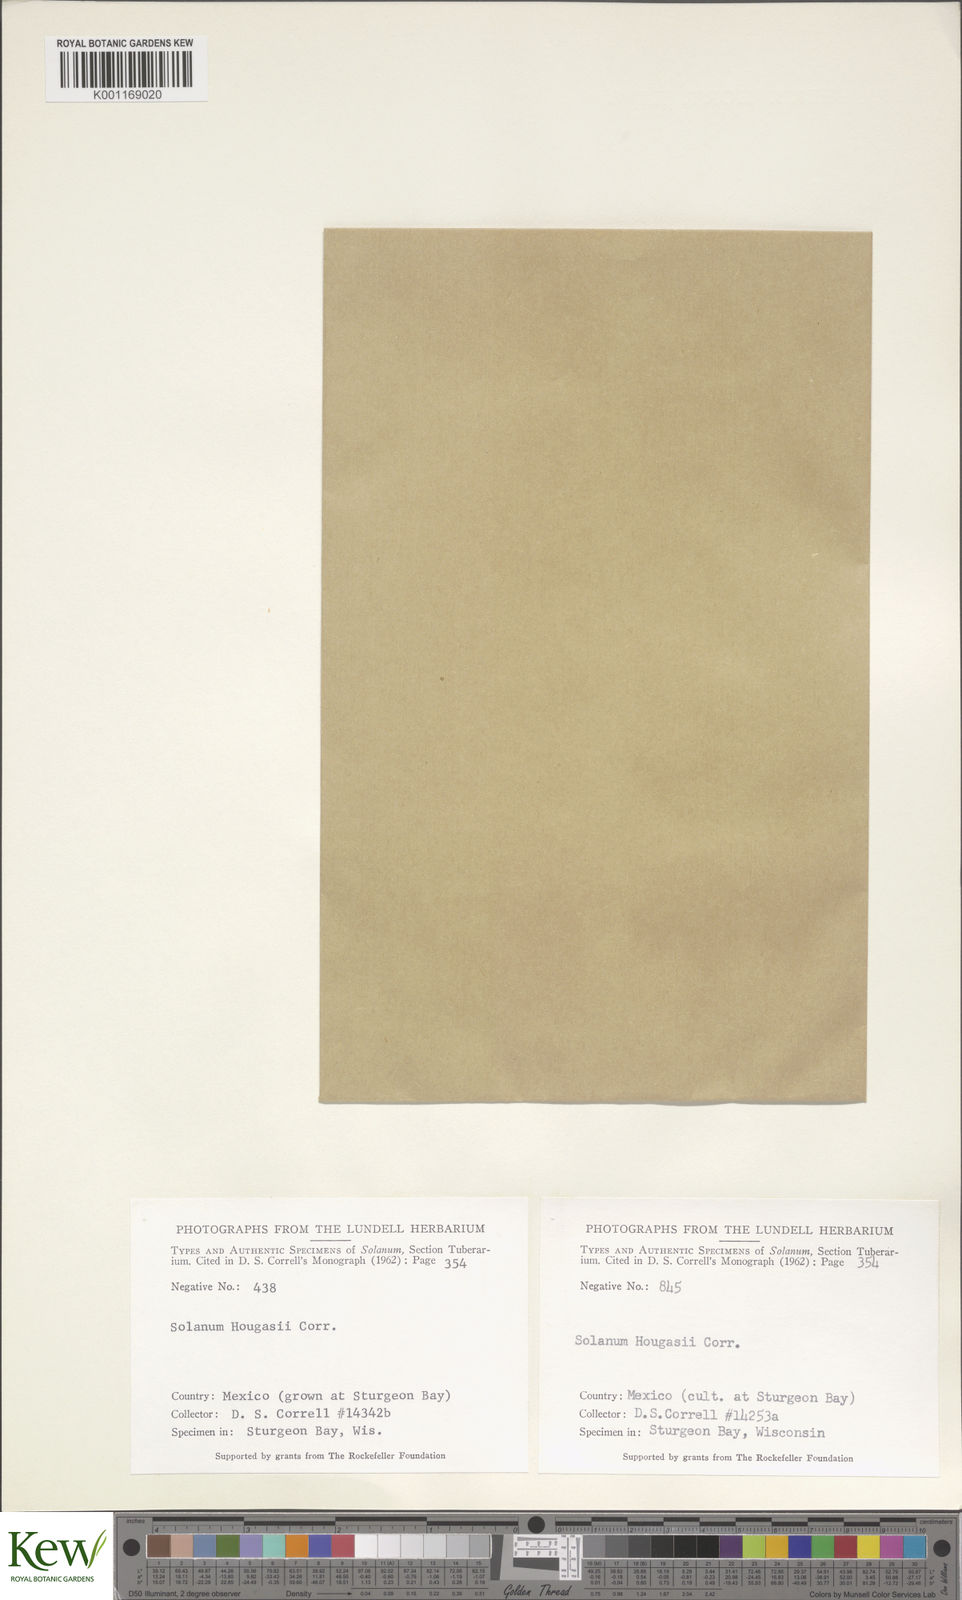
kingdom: Plantae
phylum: Tracheophyta
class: Magnoliopsida
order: Solanales
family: Solanaceae
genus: Solanum
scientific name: Solanum hougasii
